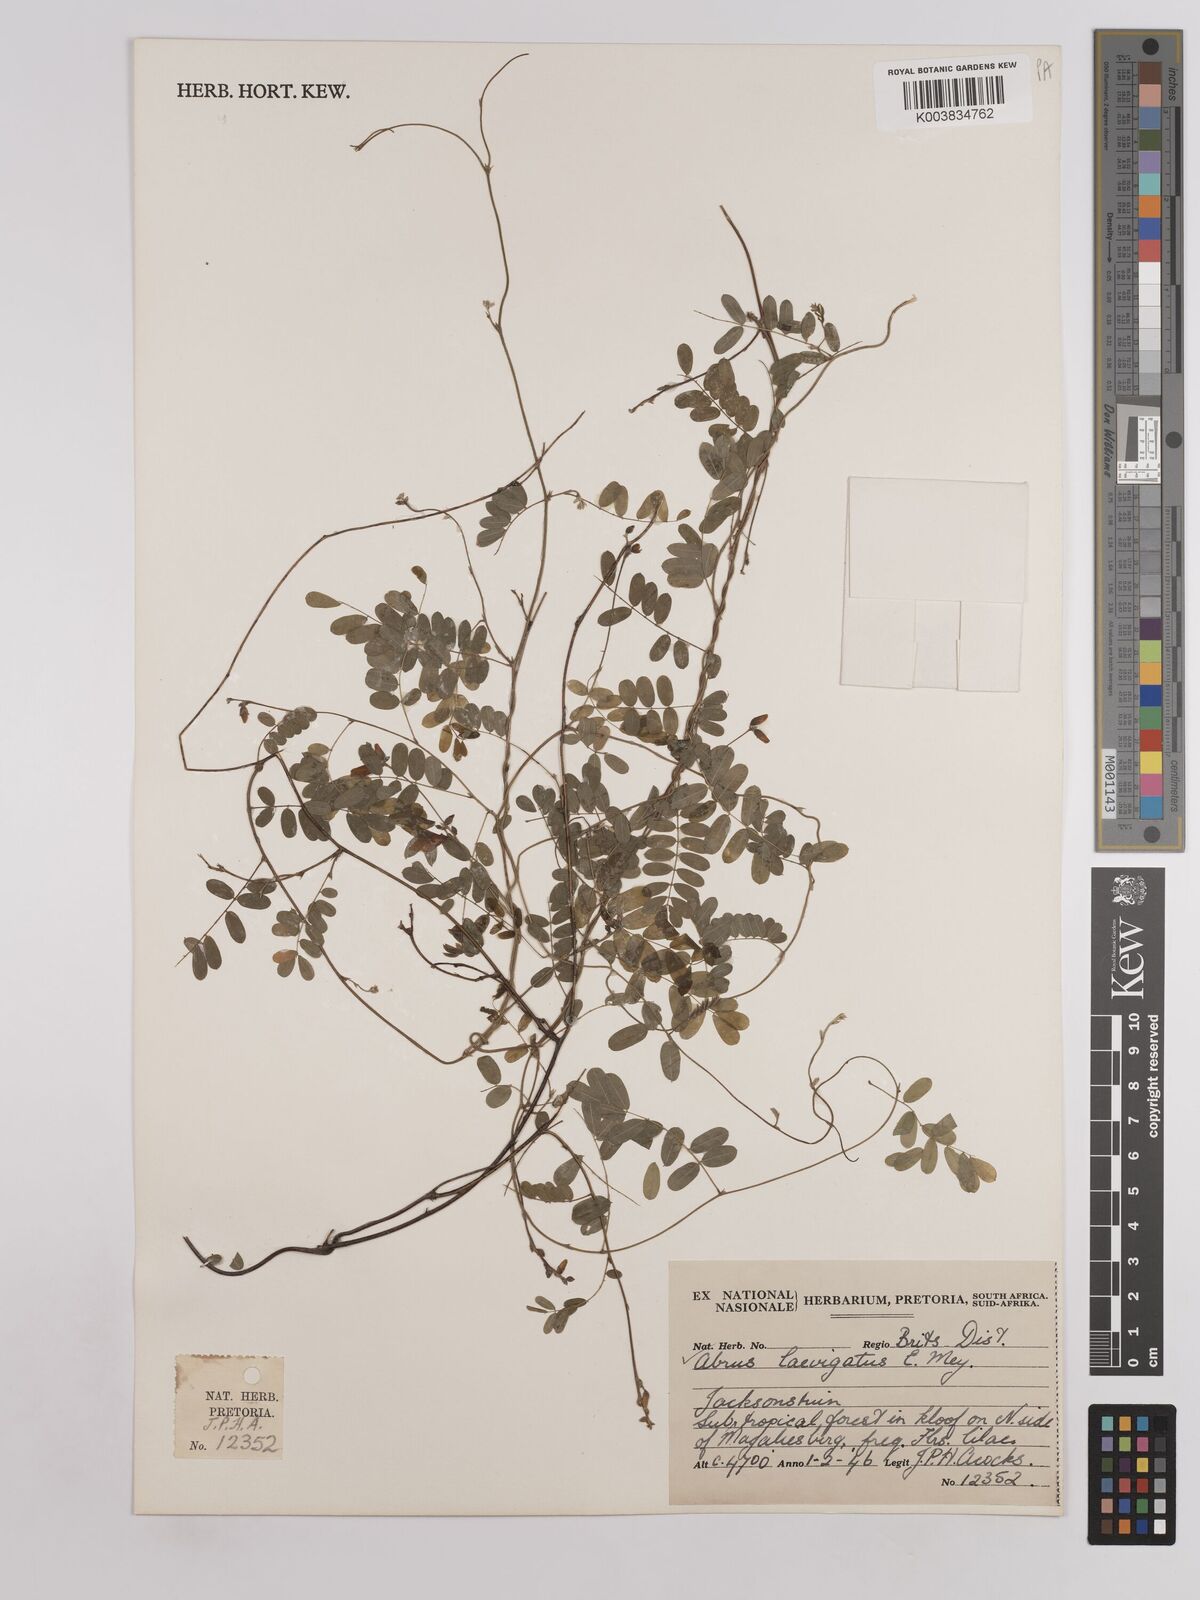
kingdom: Plantae
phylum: Tracheophyta
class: Magnoliopsida
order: Fabales
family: Fabaceae
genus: Abrus
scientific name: Abrus laevigatus
